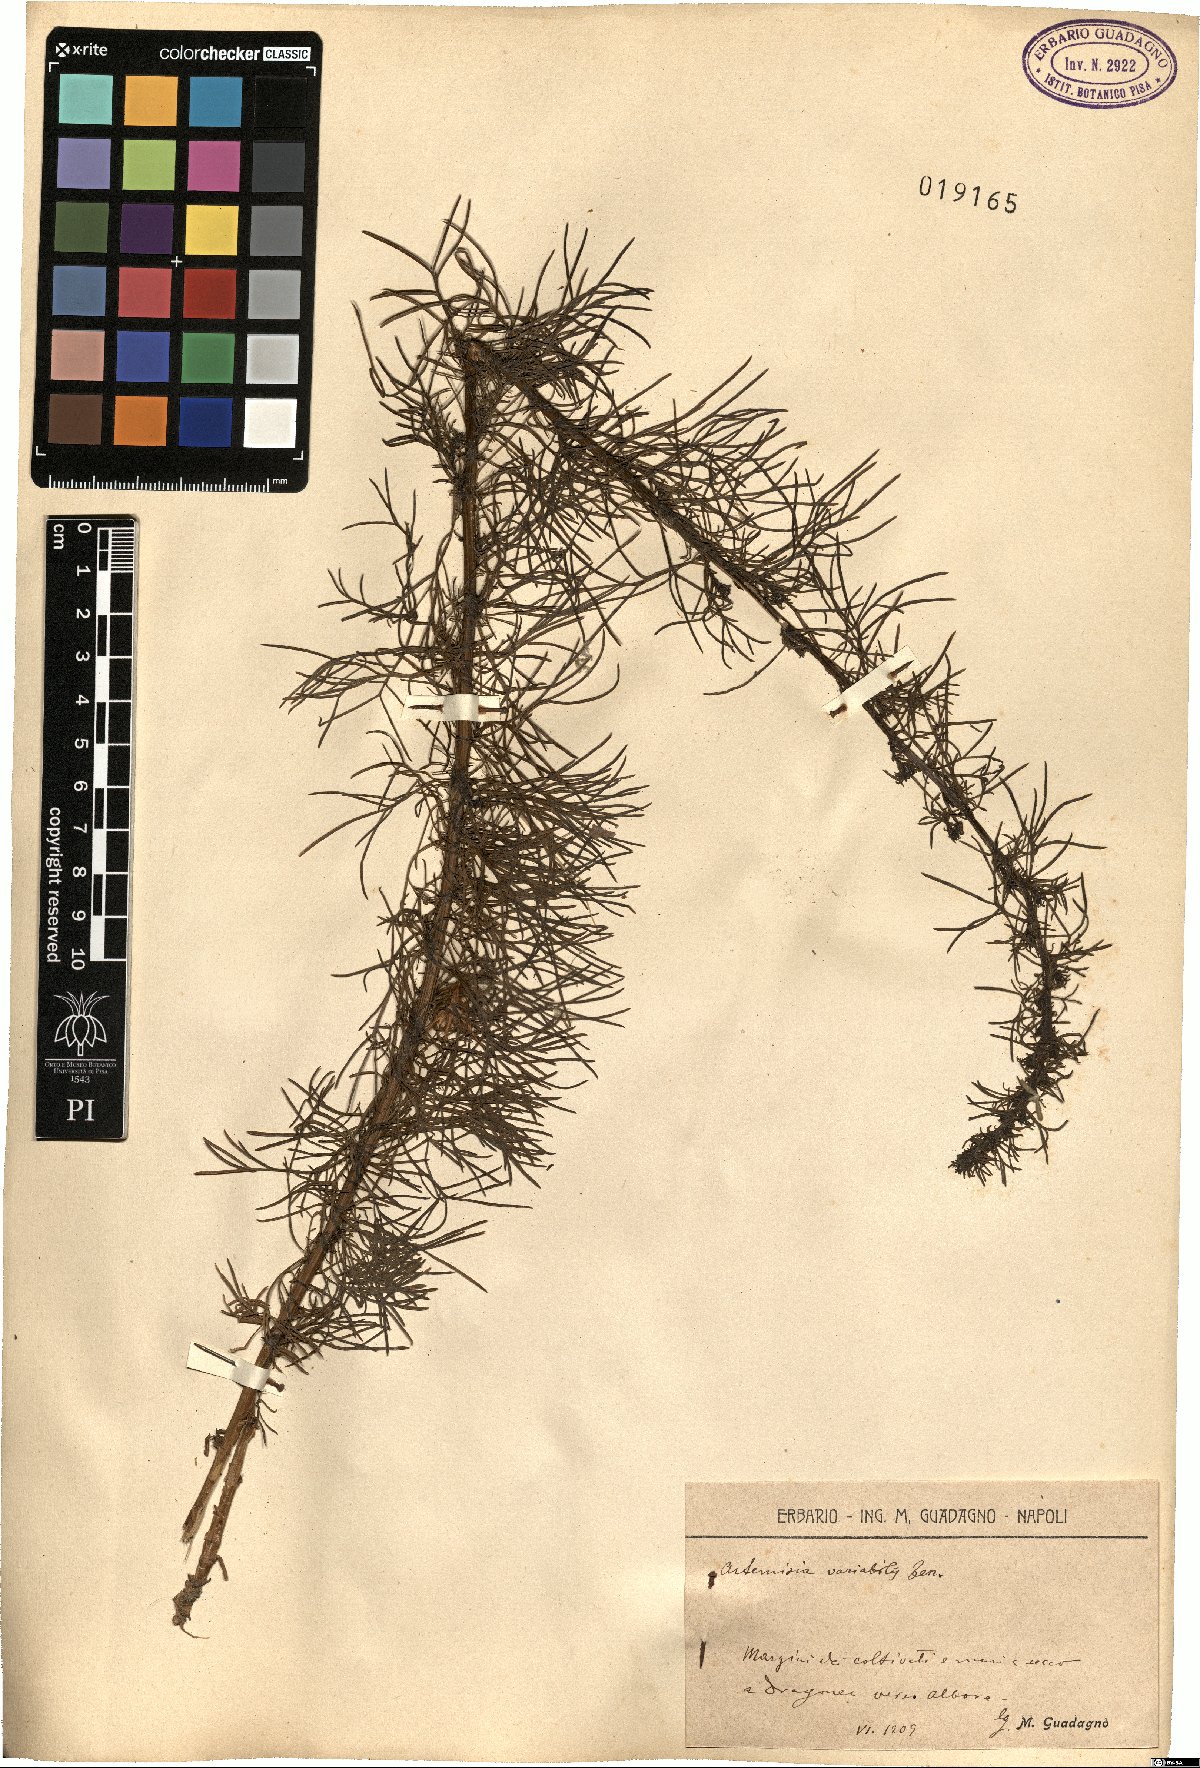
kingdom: Plantae
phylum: Tracheophyta
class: Magnoliopsida
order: Asterales
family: Asteraceae
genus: Artemisia
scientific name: Artemisia campestris
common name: Field wormwood
